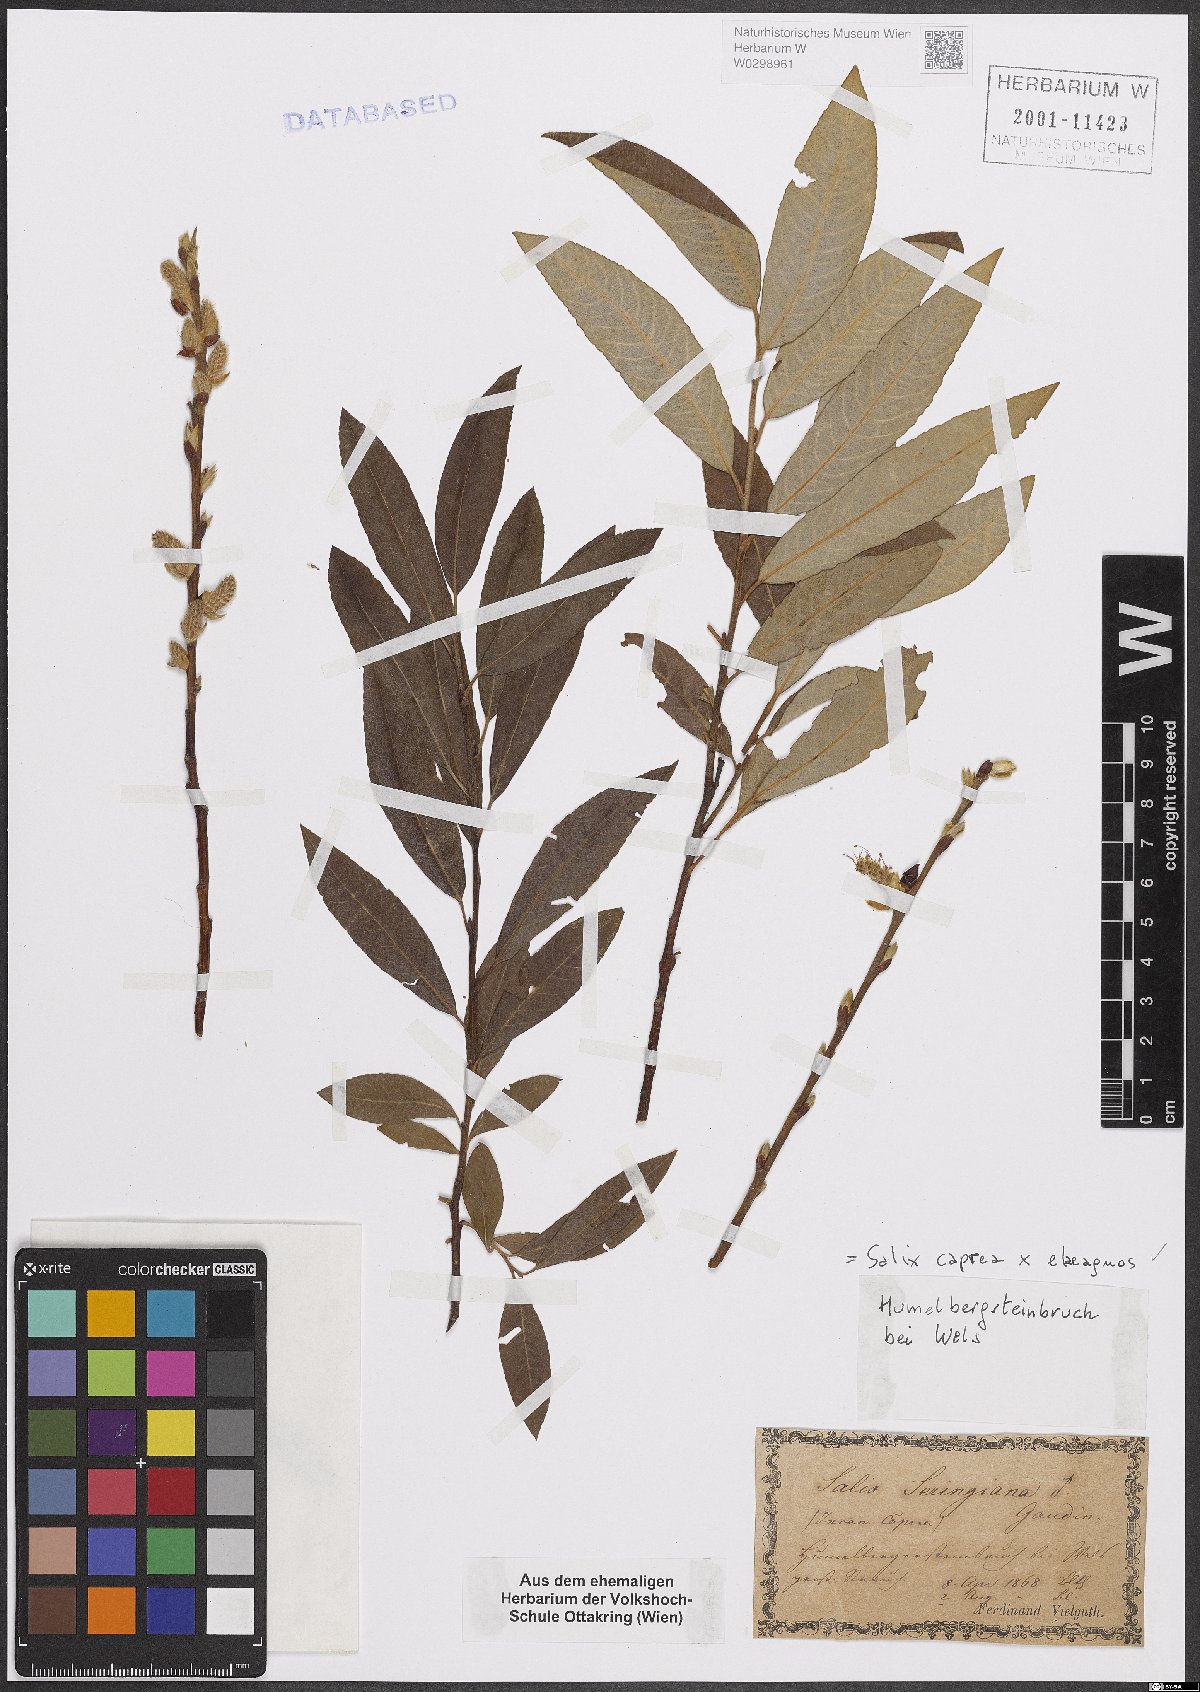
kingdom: Plantae
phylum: Tracheophyta
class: Magnoliopsida
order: Malpighiales
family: Salicaceae
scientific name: Salicaceae
